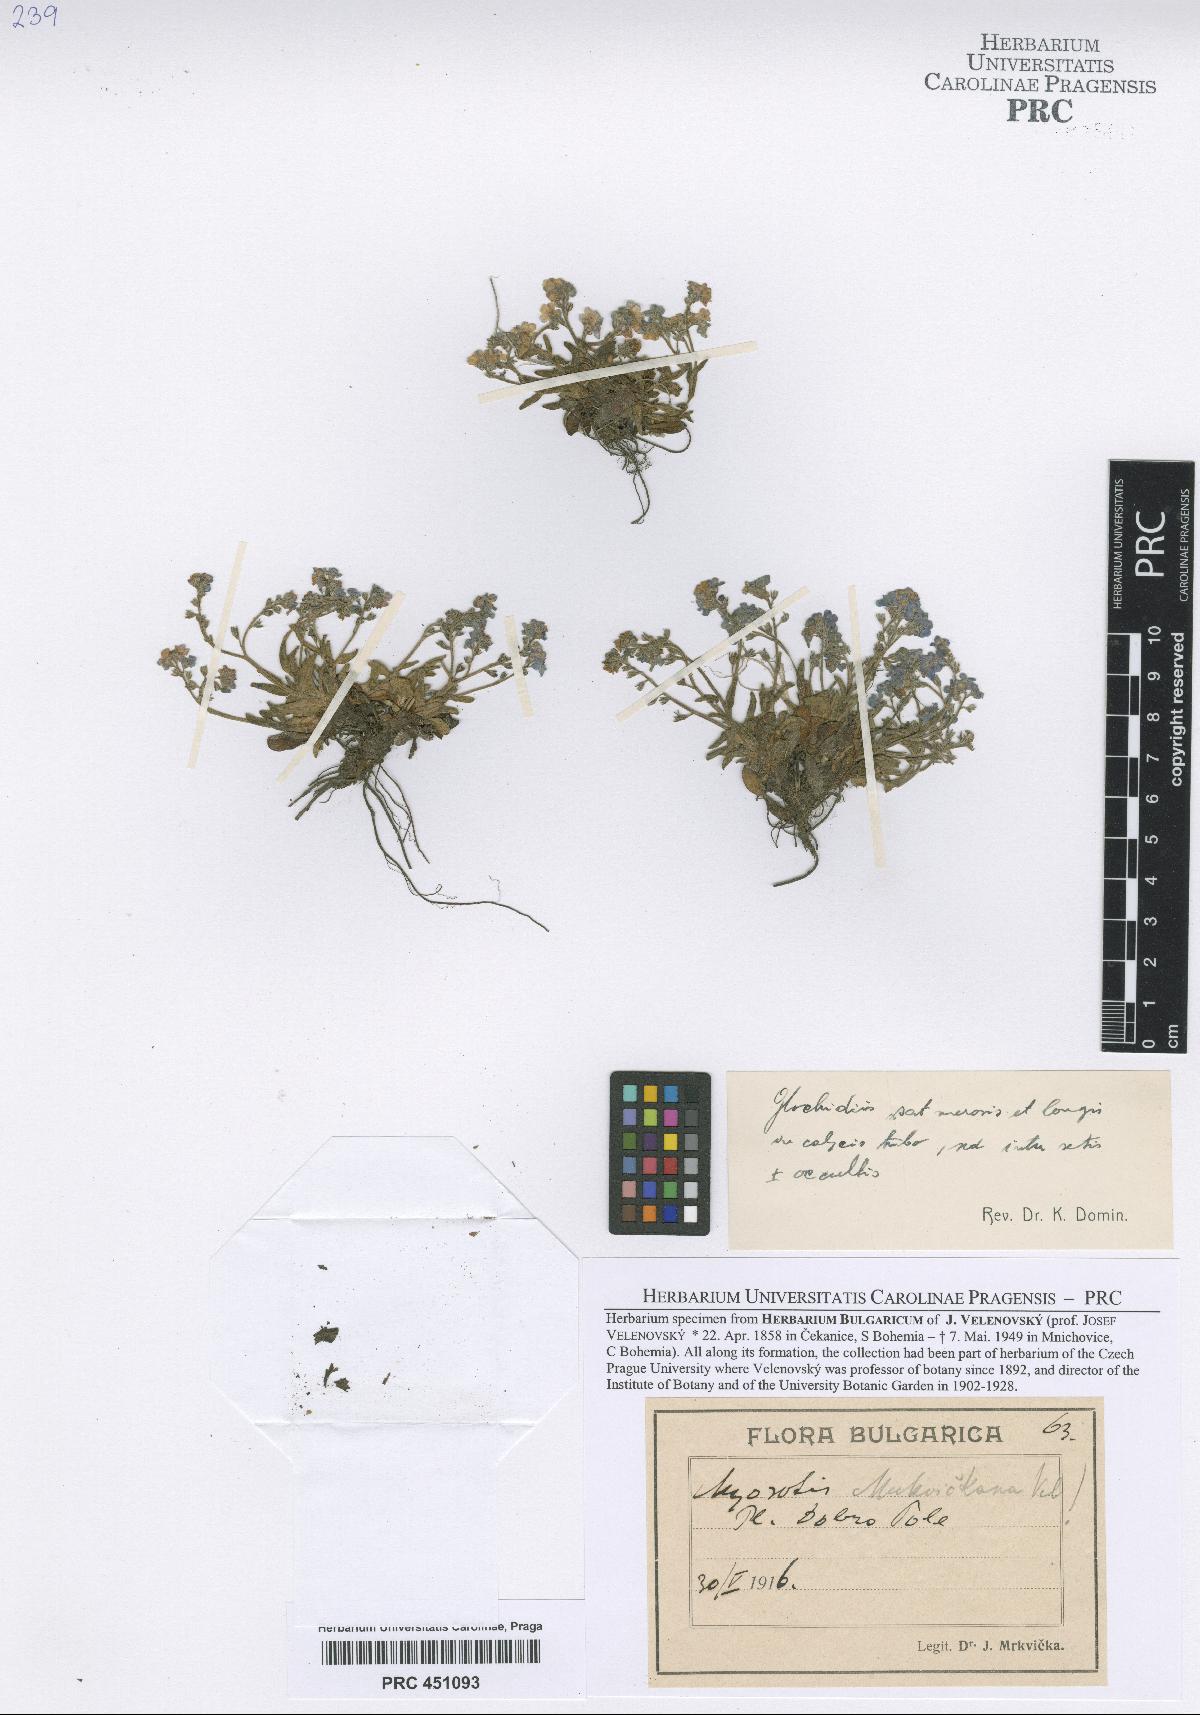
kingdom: Plantae
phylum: Tracheophyta
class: Magnoliopsida
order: Boraginales
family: Boraginaceae
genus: Myosotis
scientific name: Myosotis alpestris
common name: Alpine forget-me-not
